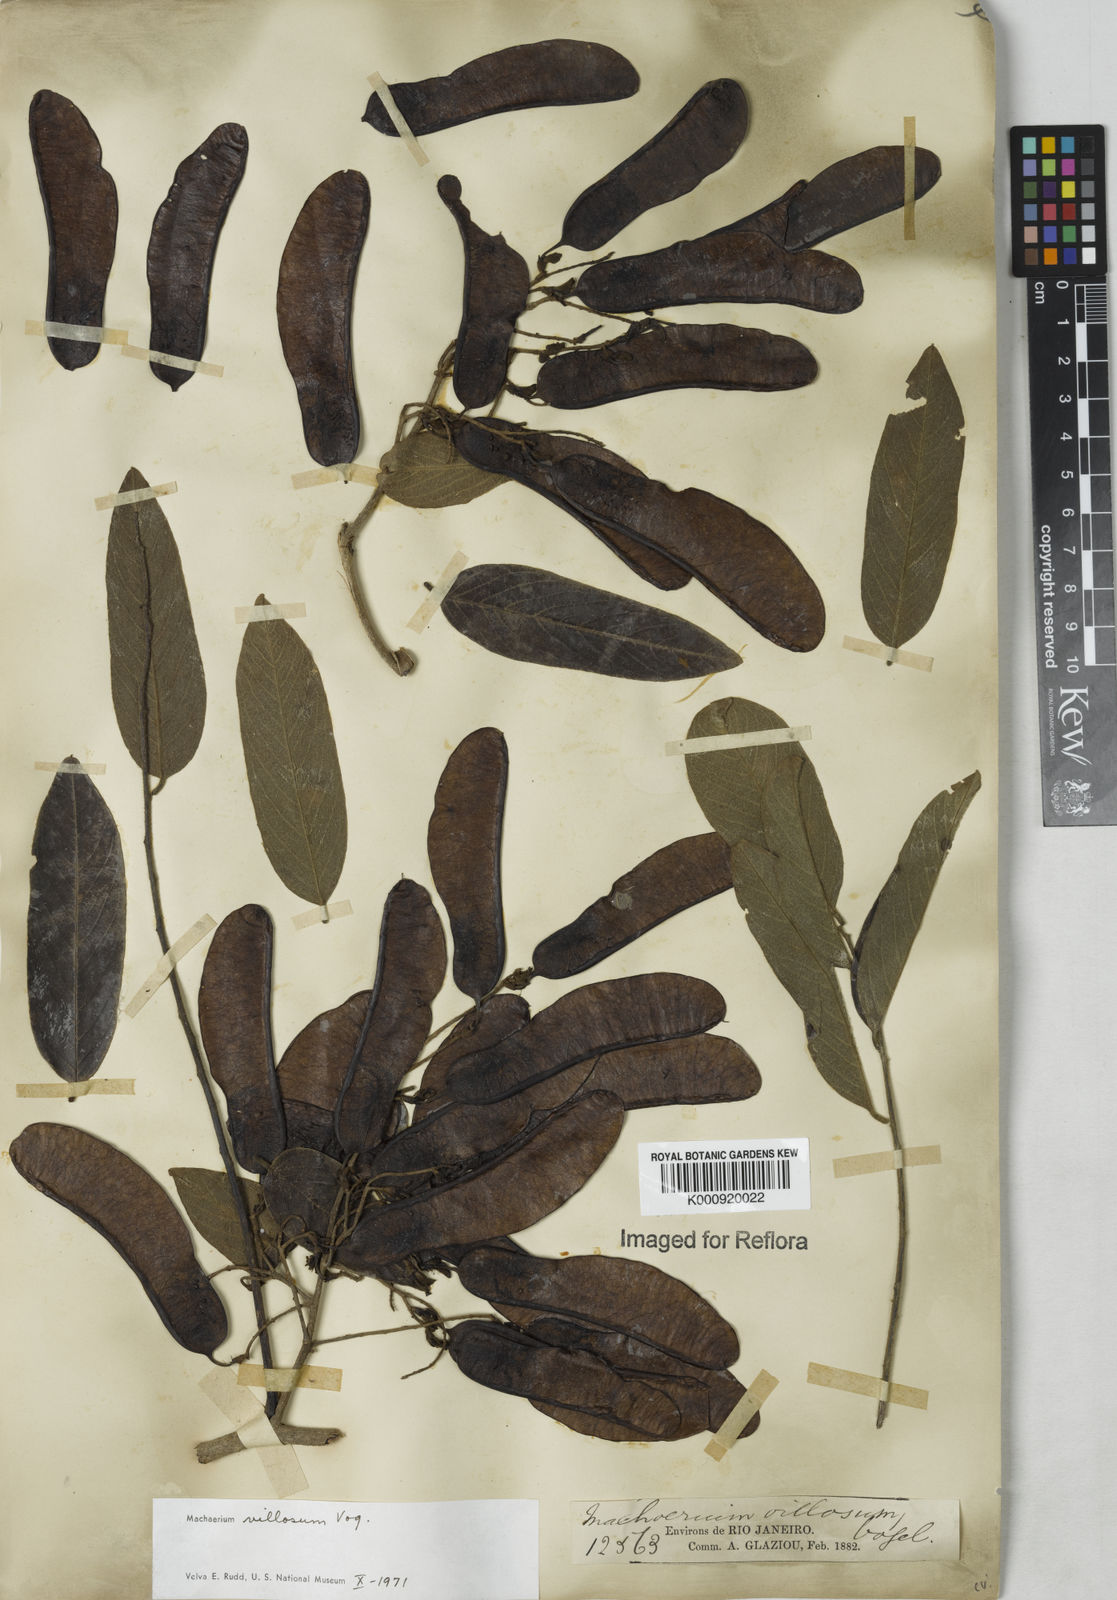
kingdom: Plantae
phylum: Tracheophyta
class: Magnoliopsida
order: Fabales
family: Fabaceae
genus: Machaerium
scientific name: Machaerium villosum
